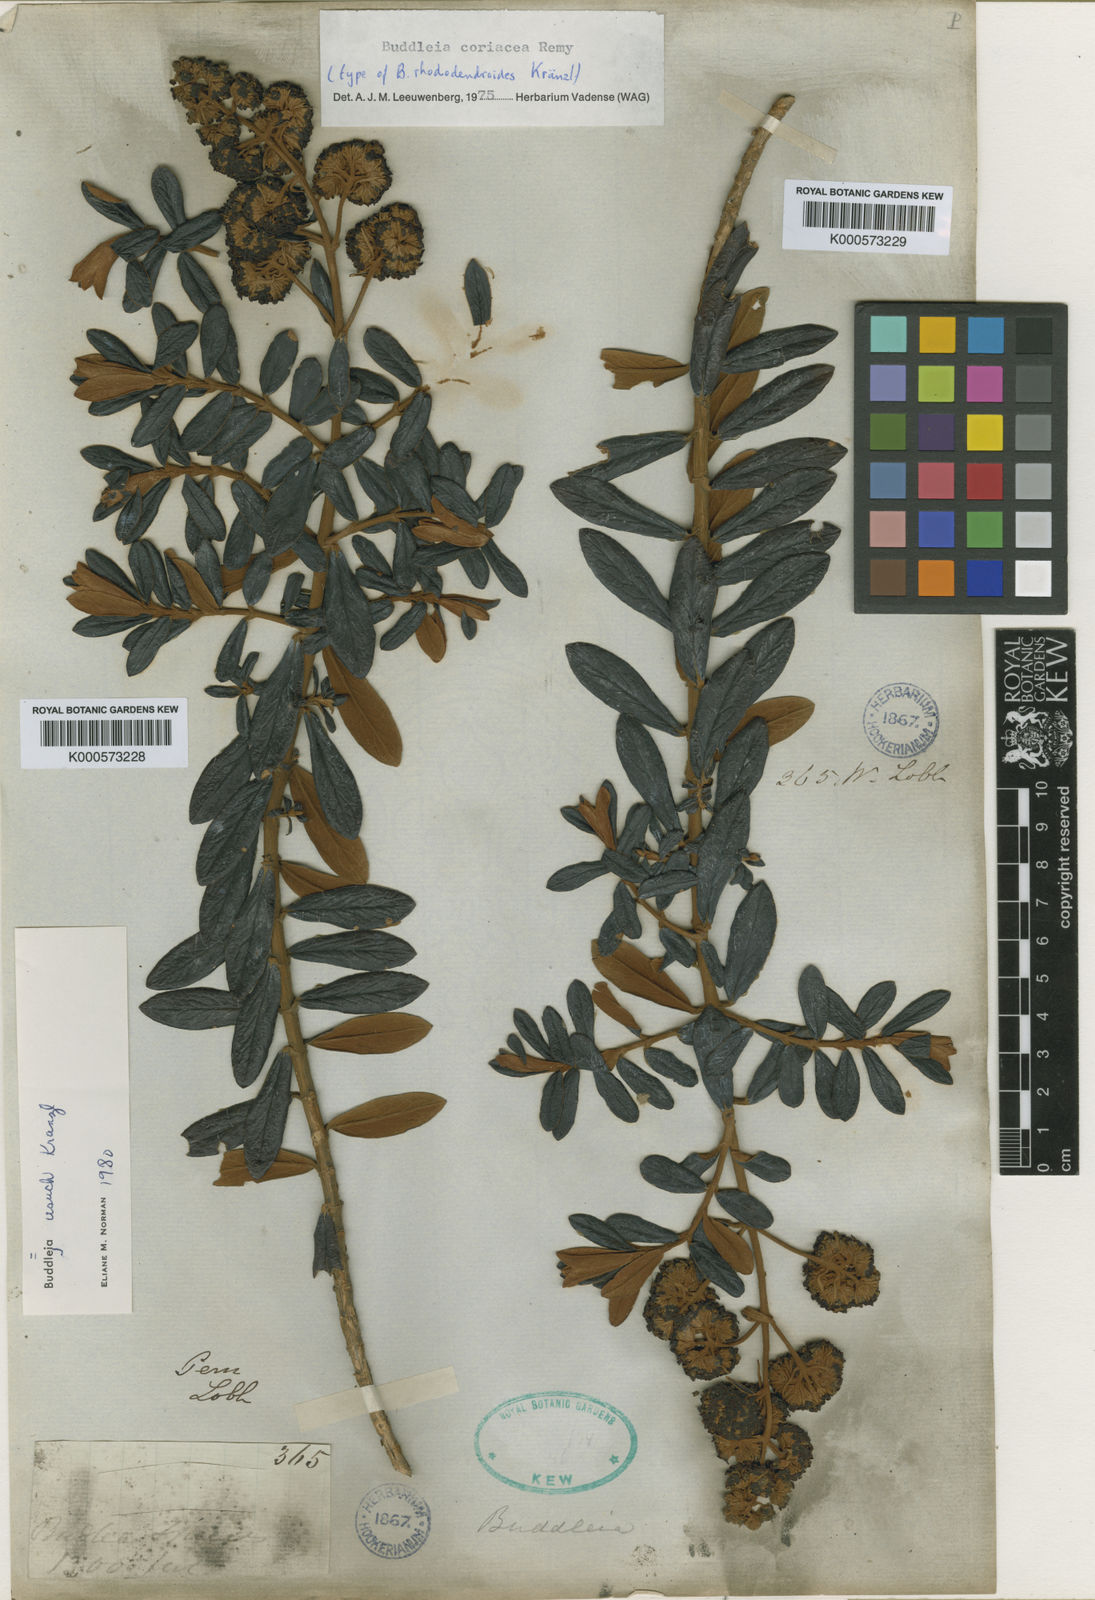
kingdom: Plantae
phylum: Tracheophyta
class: Magnoliopsida
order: Lamiales
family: Scrophulariaceae
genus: Buddleja
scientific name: Buddleja coriacea
